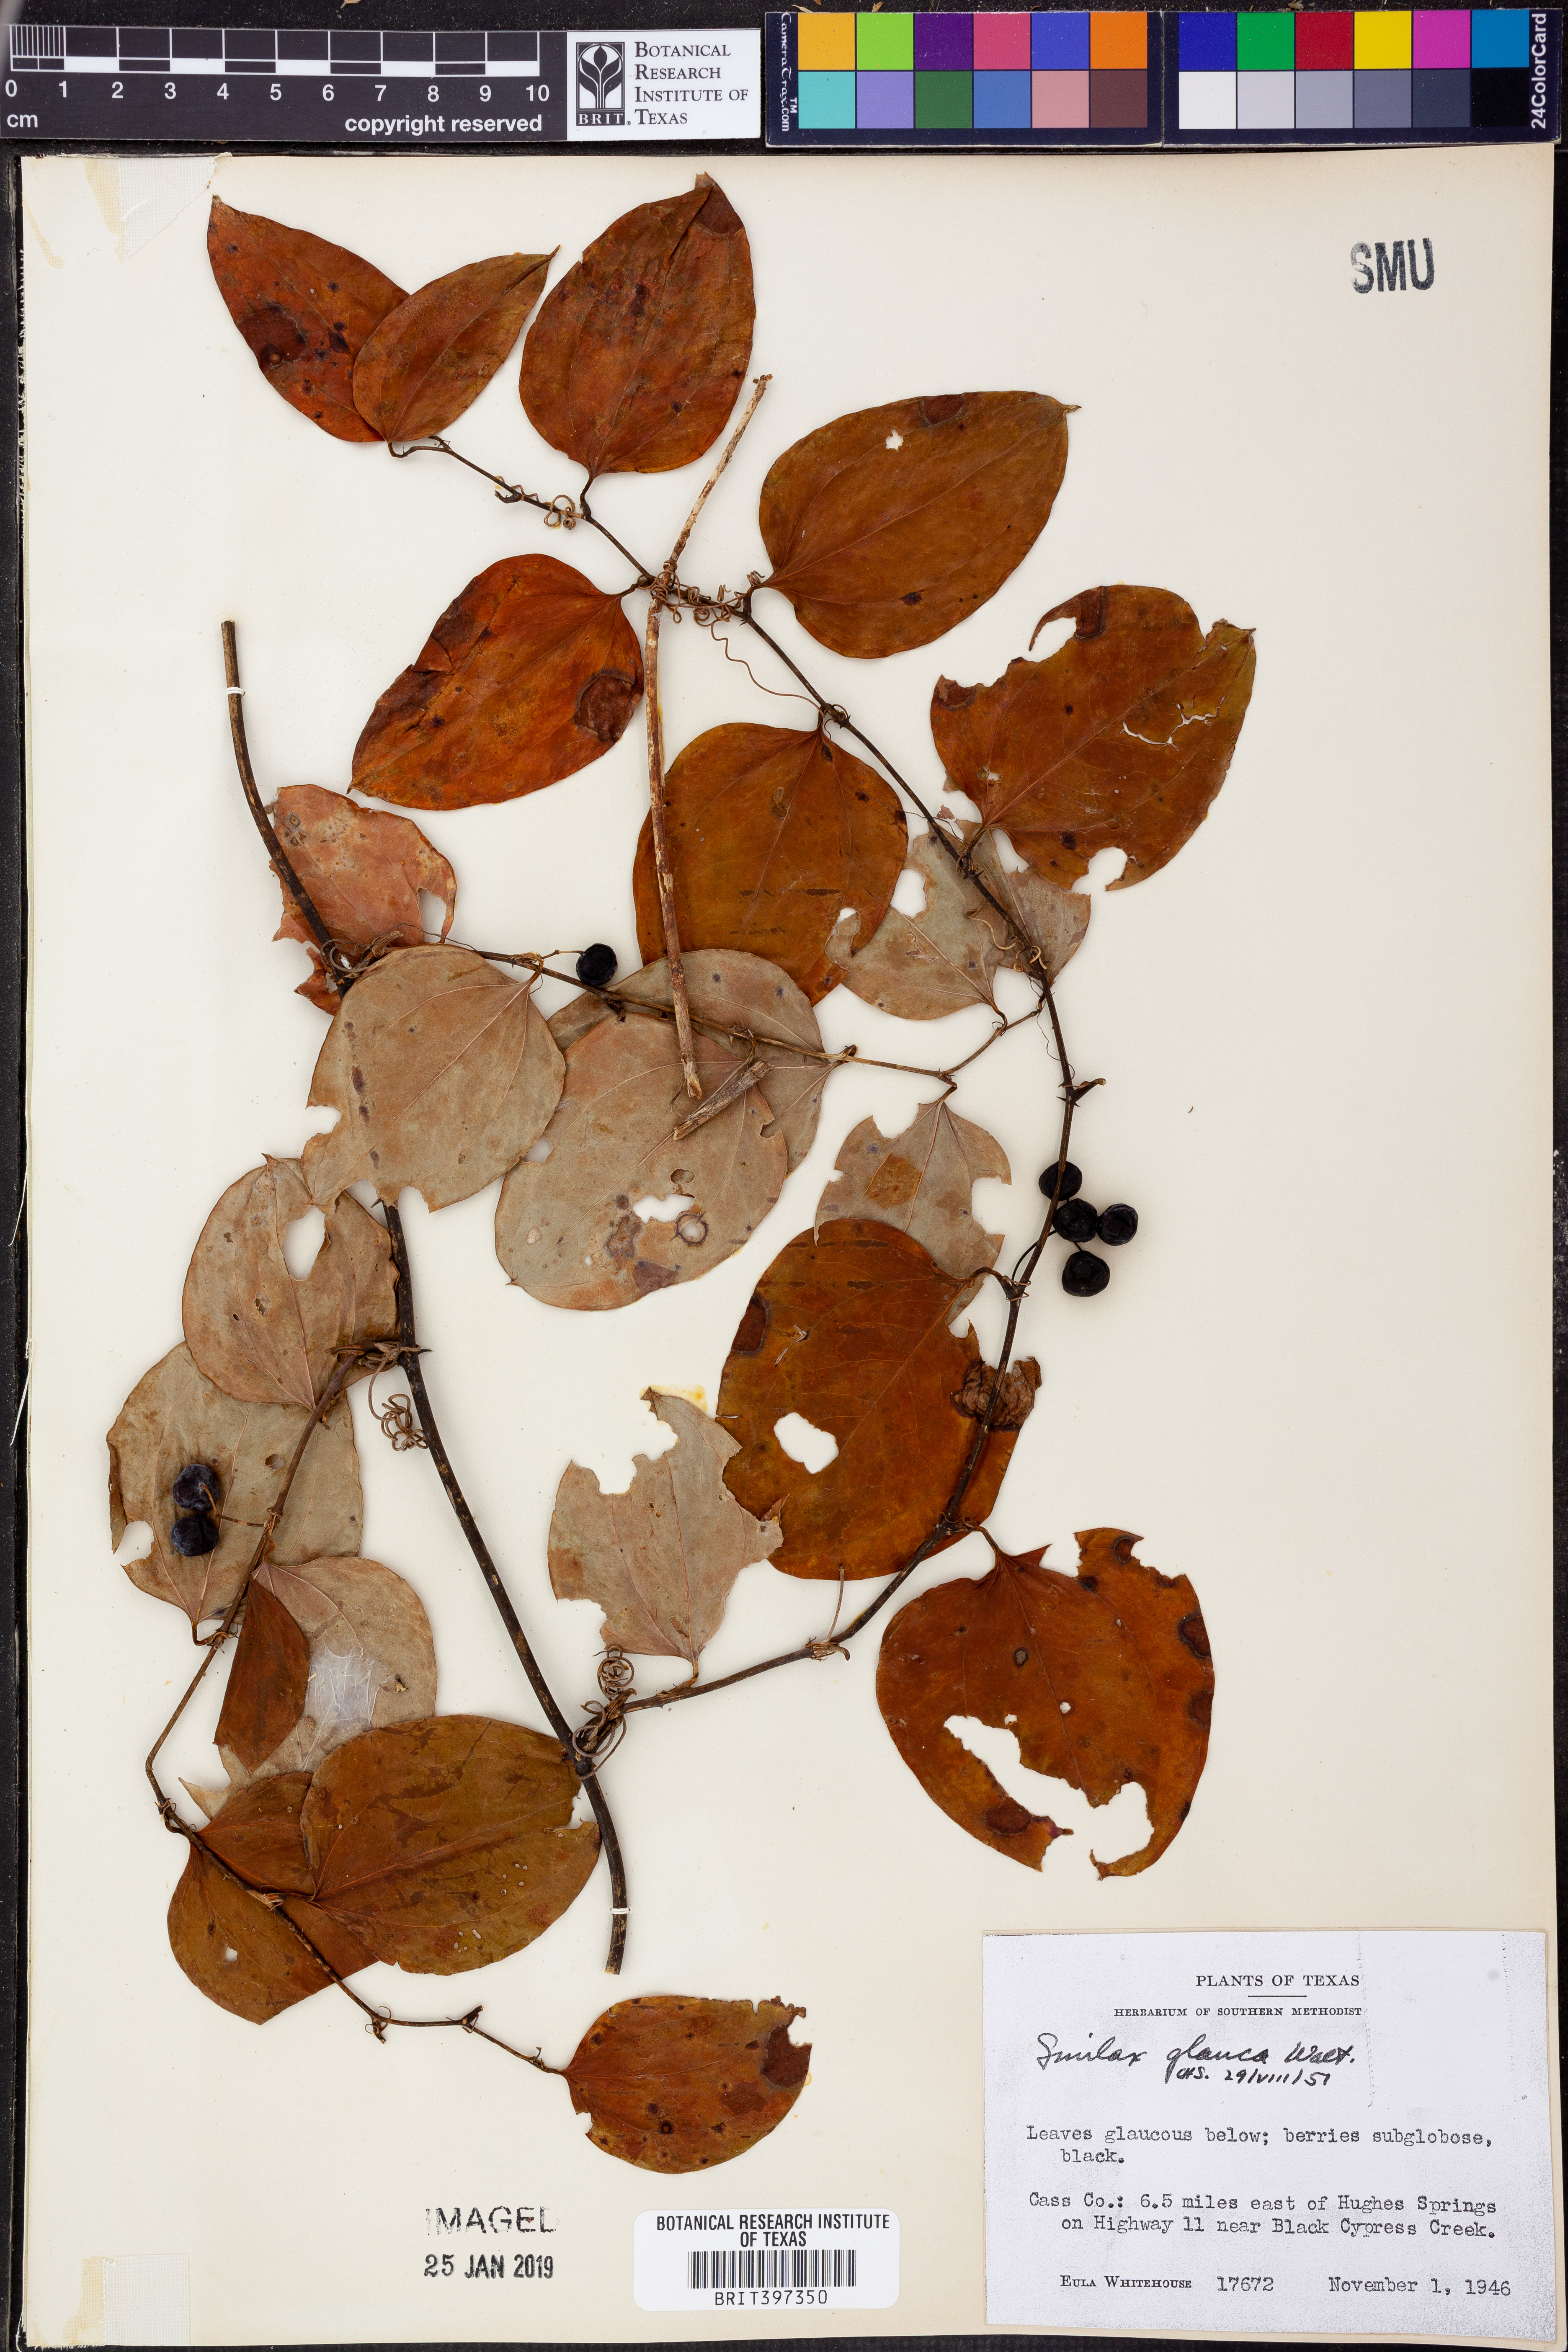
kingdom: Plantae
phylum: Tracheophyta
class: Liliopsida
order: Liliales
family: Smilacaceae
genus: Smilax
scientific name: Smilax glauca
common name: Cat greenbrier
